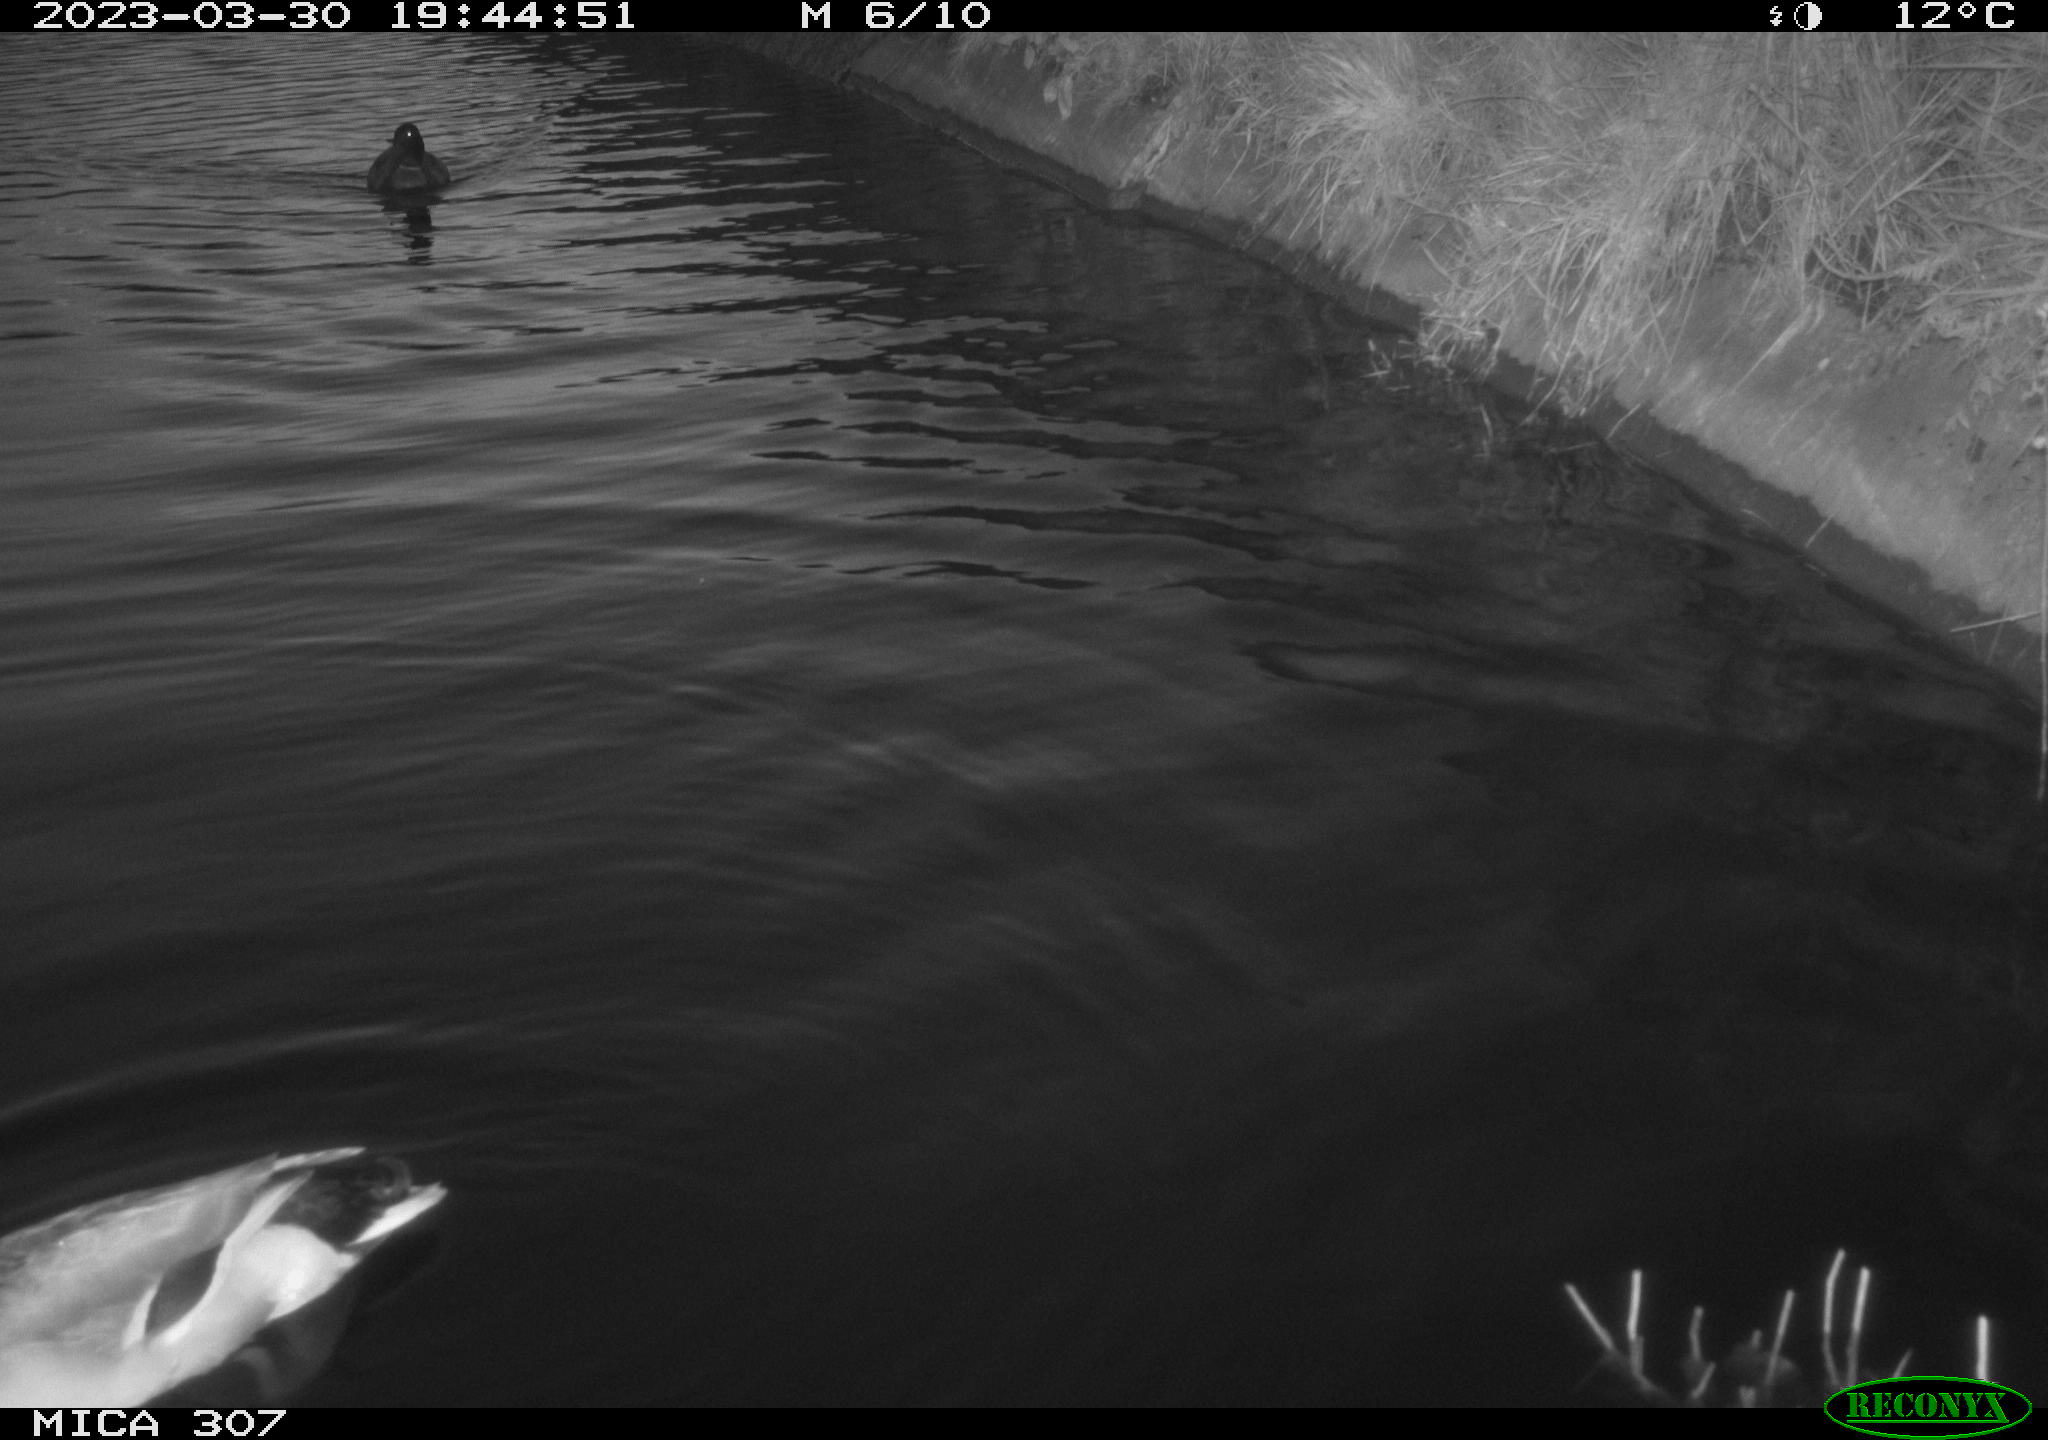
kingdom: Animalia
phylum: Chordata
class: Aves
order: Anseriformes
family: Anatidae
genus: Anas
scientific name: Anas
